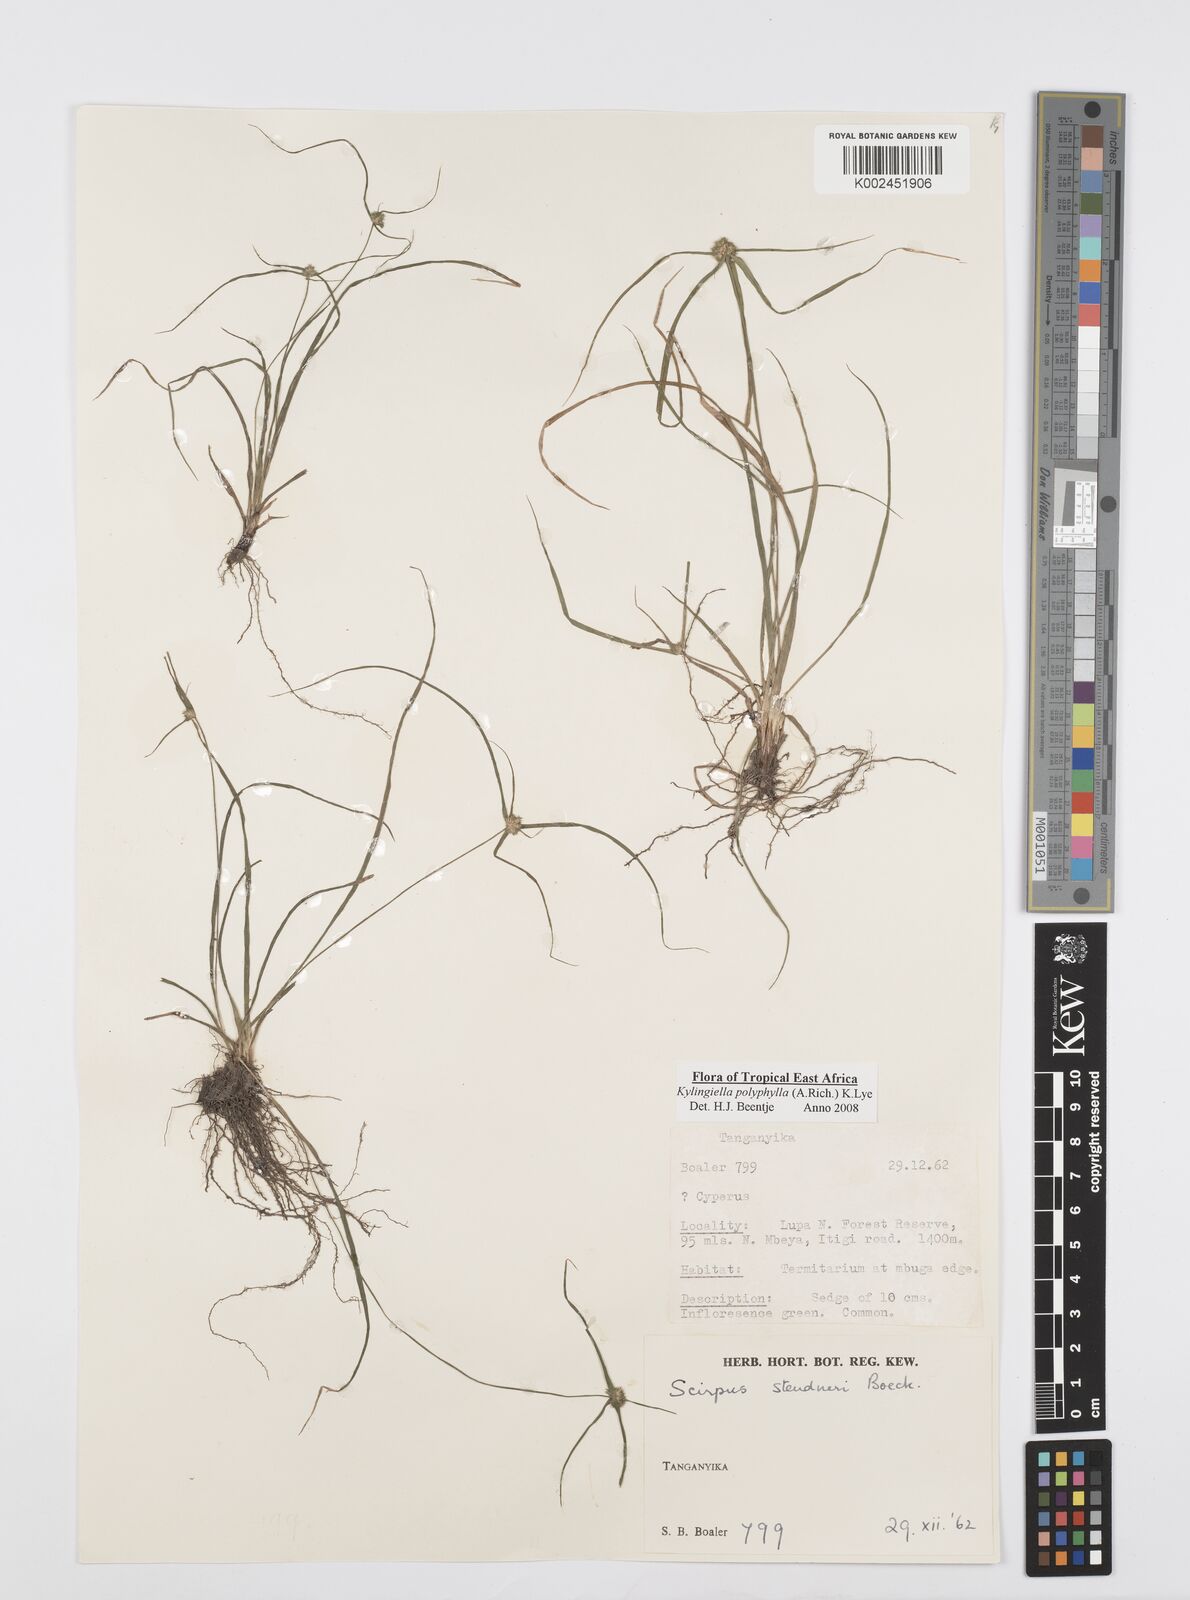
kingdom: Plantae
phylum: Tracheophyta
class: Liliopsida
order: Poales
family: Cyperaceae
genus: Cyperus
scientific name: Cyperus bulbosus
